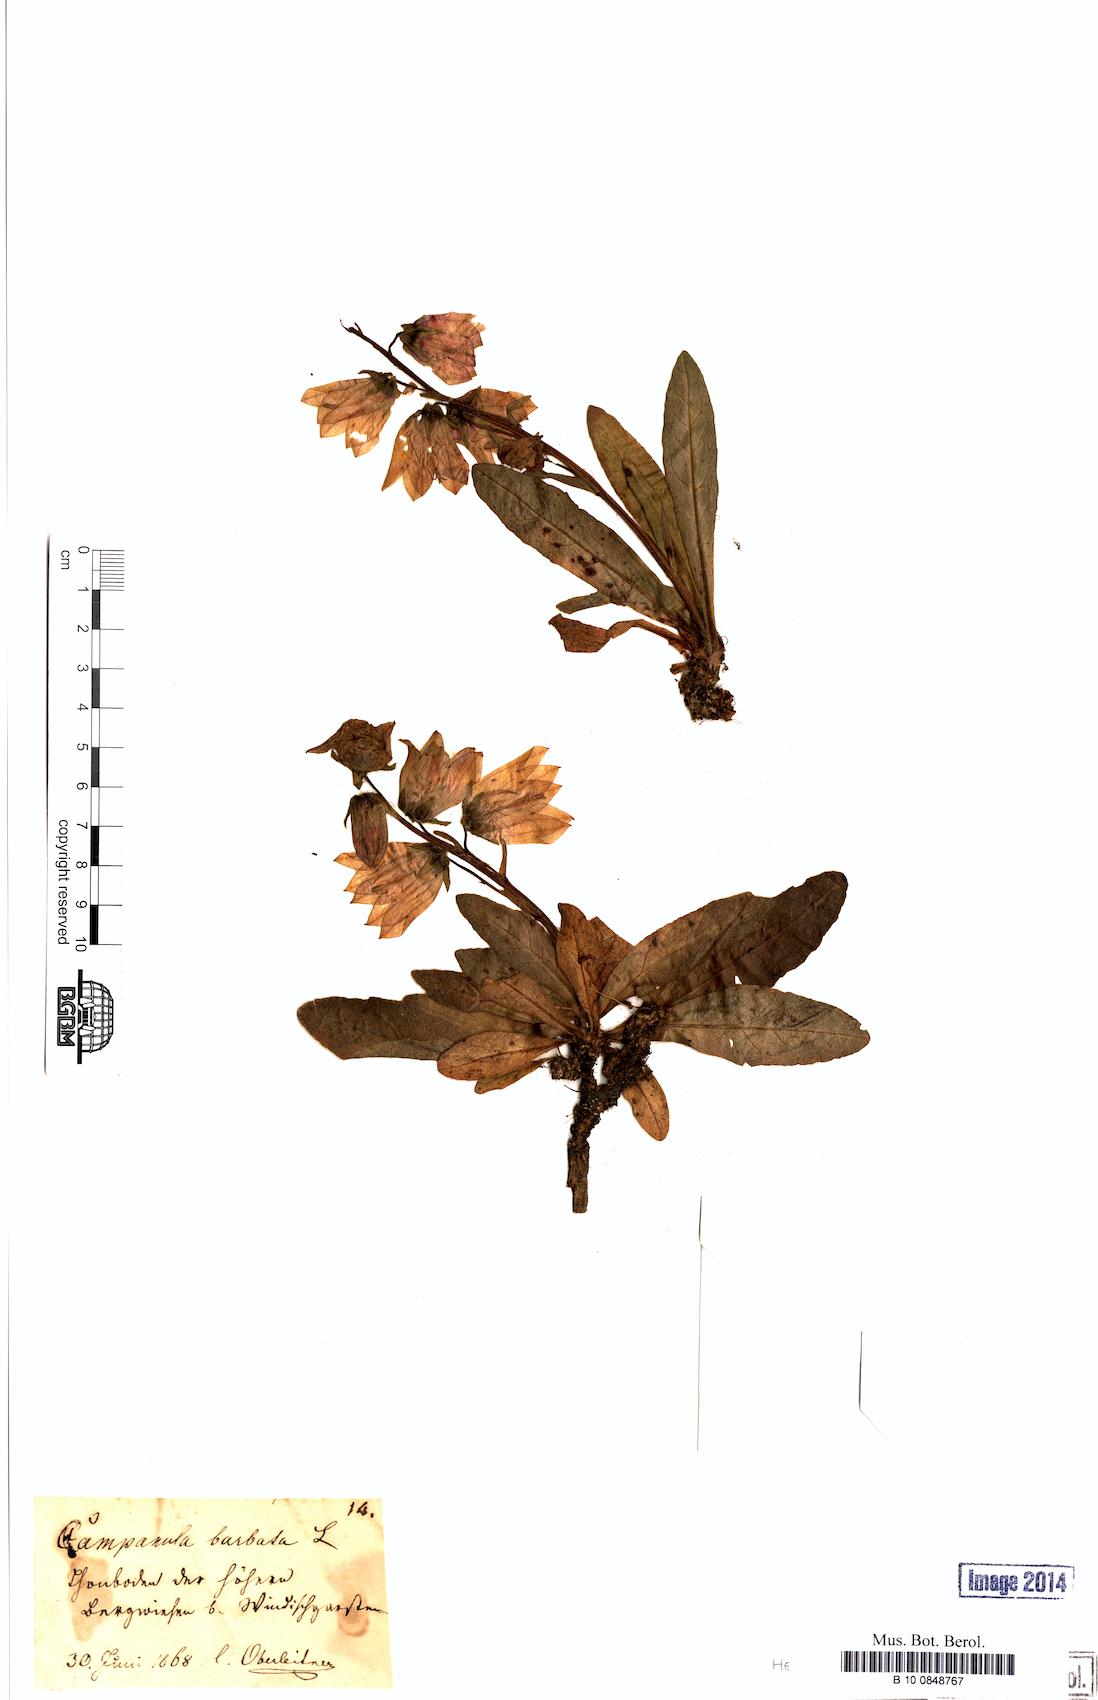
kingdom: Plantae
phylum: Tracheophyta
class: Magnoliopsida
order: Asterales
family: Campanulaceae
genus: Campanula
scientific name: Campanula barbata
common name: Bearded bellflower
